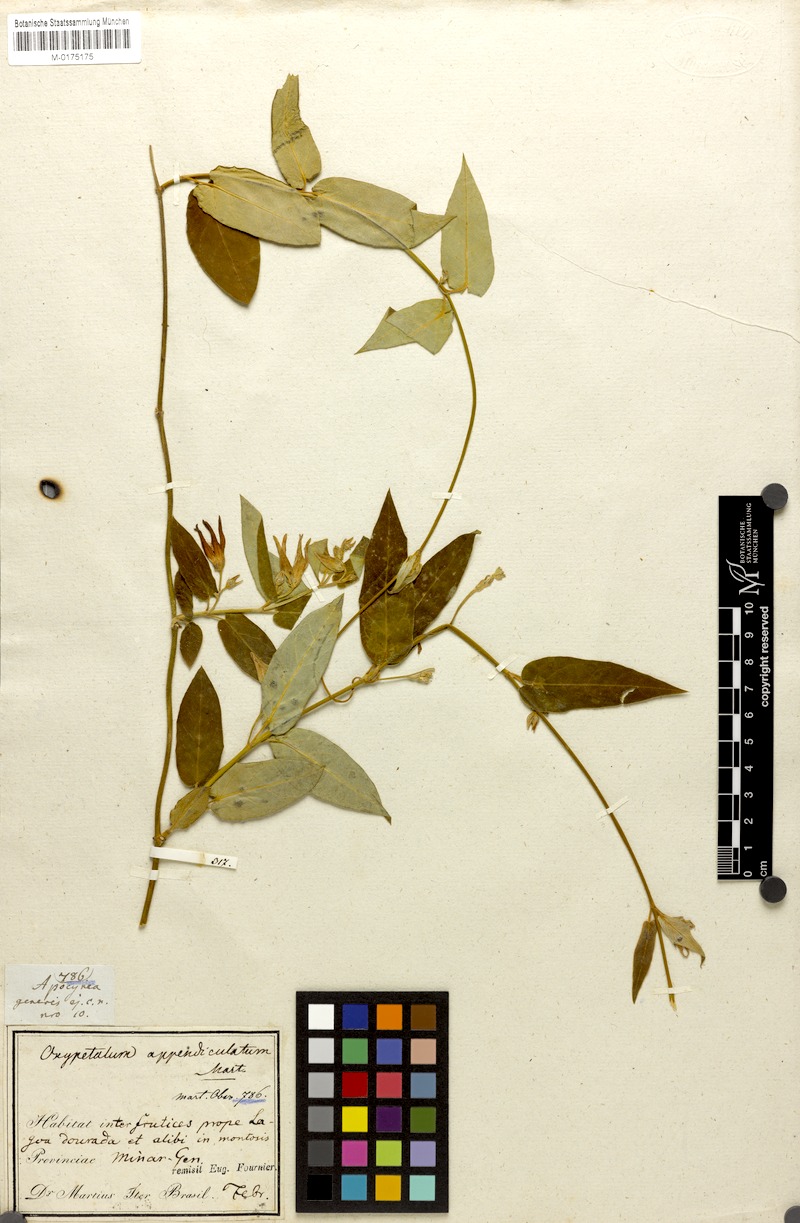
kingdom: Plantae
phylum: Tracheophyta
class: Magnoliopsida
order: Gentianales
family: Apocynaceae
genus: Oxypetalum
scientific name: Oxypetalum appendiculatum
